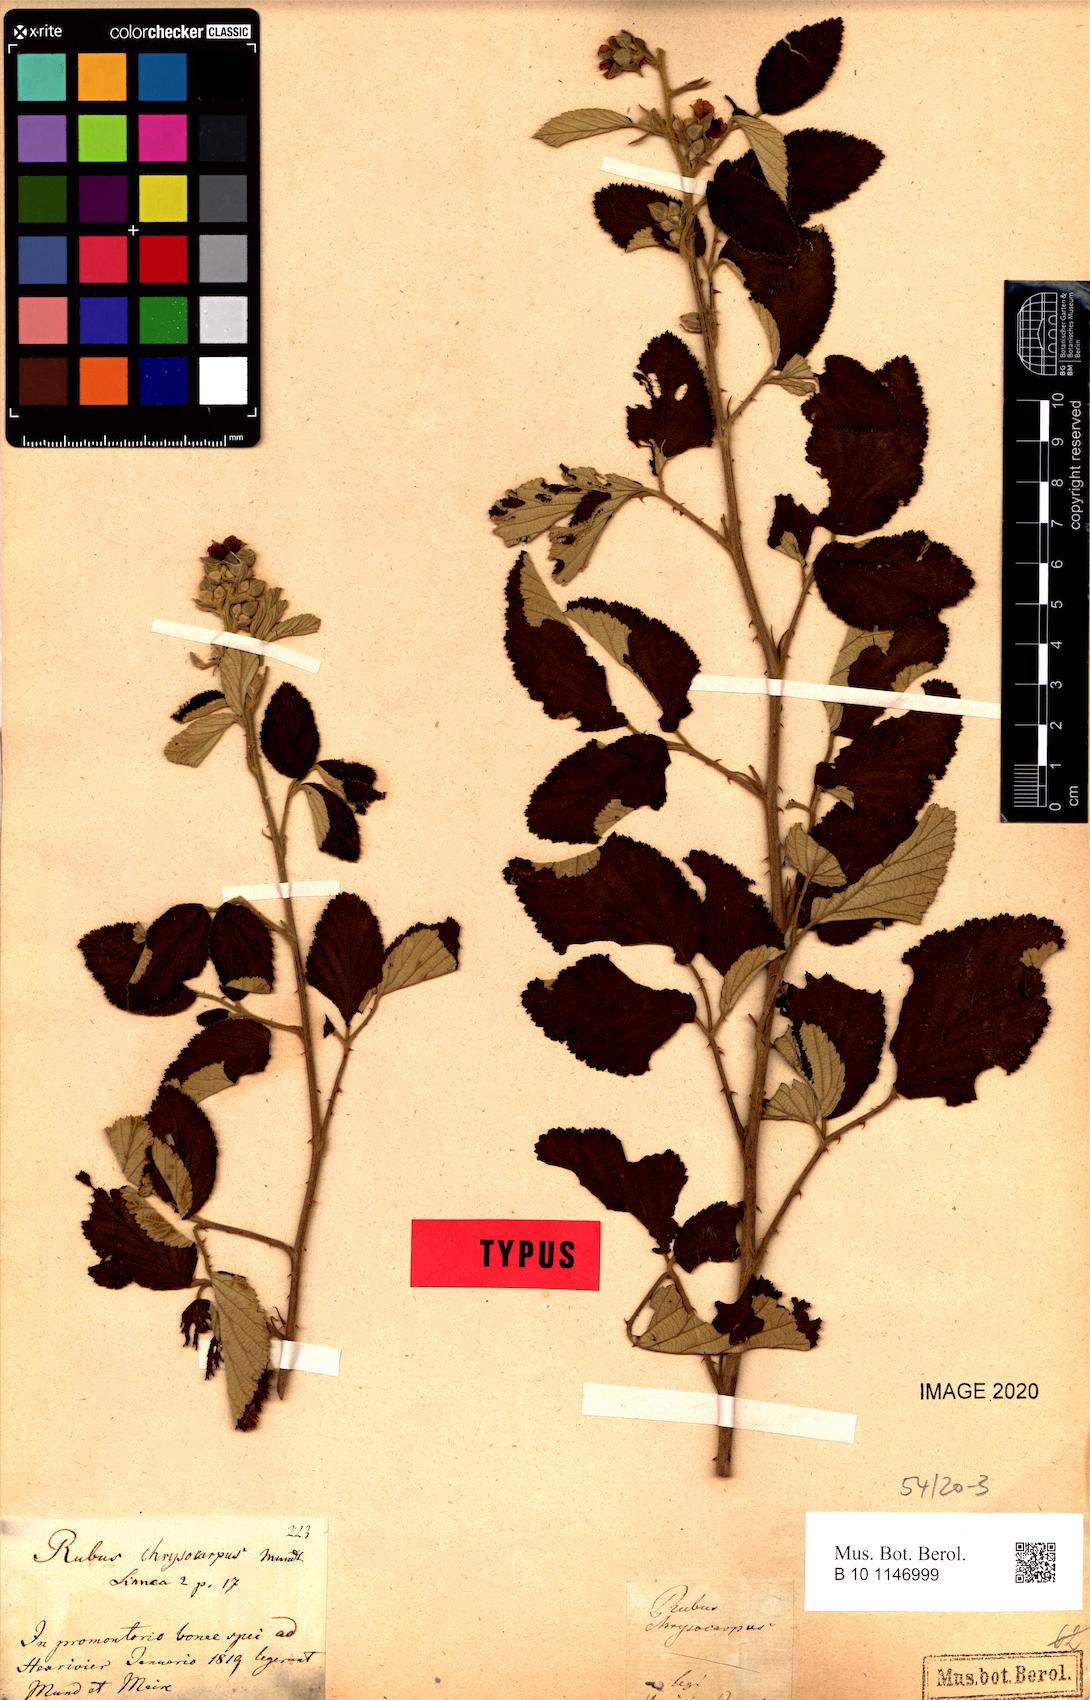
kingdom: Plantae
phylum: Tracheophyta
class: Magnoliopsida
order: Rosales
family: Rosaceae
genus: Rubus
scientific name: Rubus rigidus
